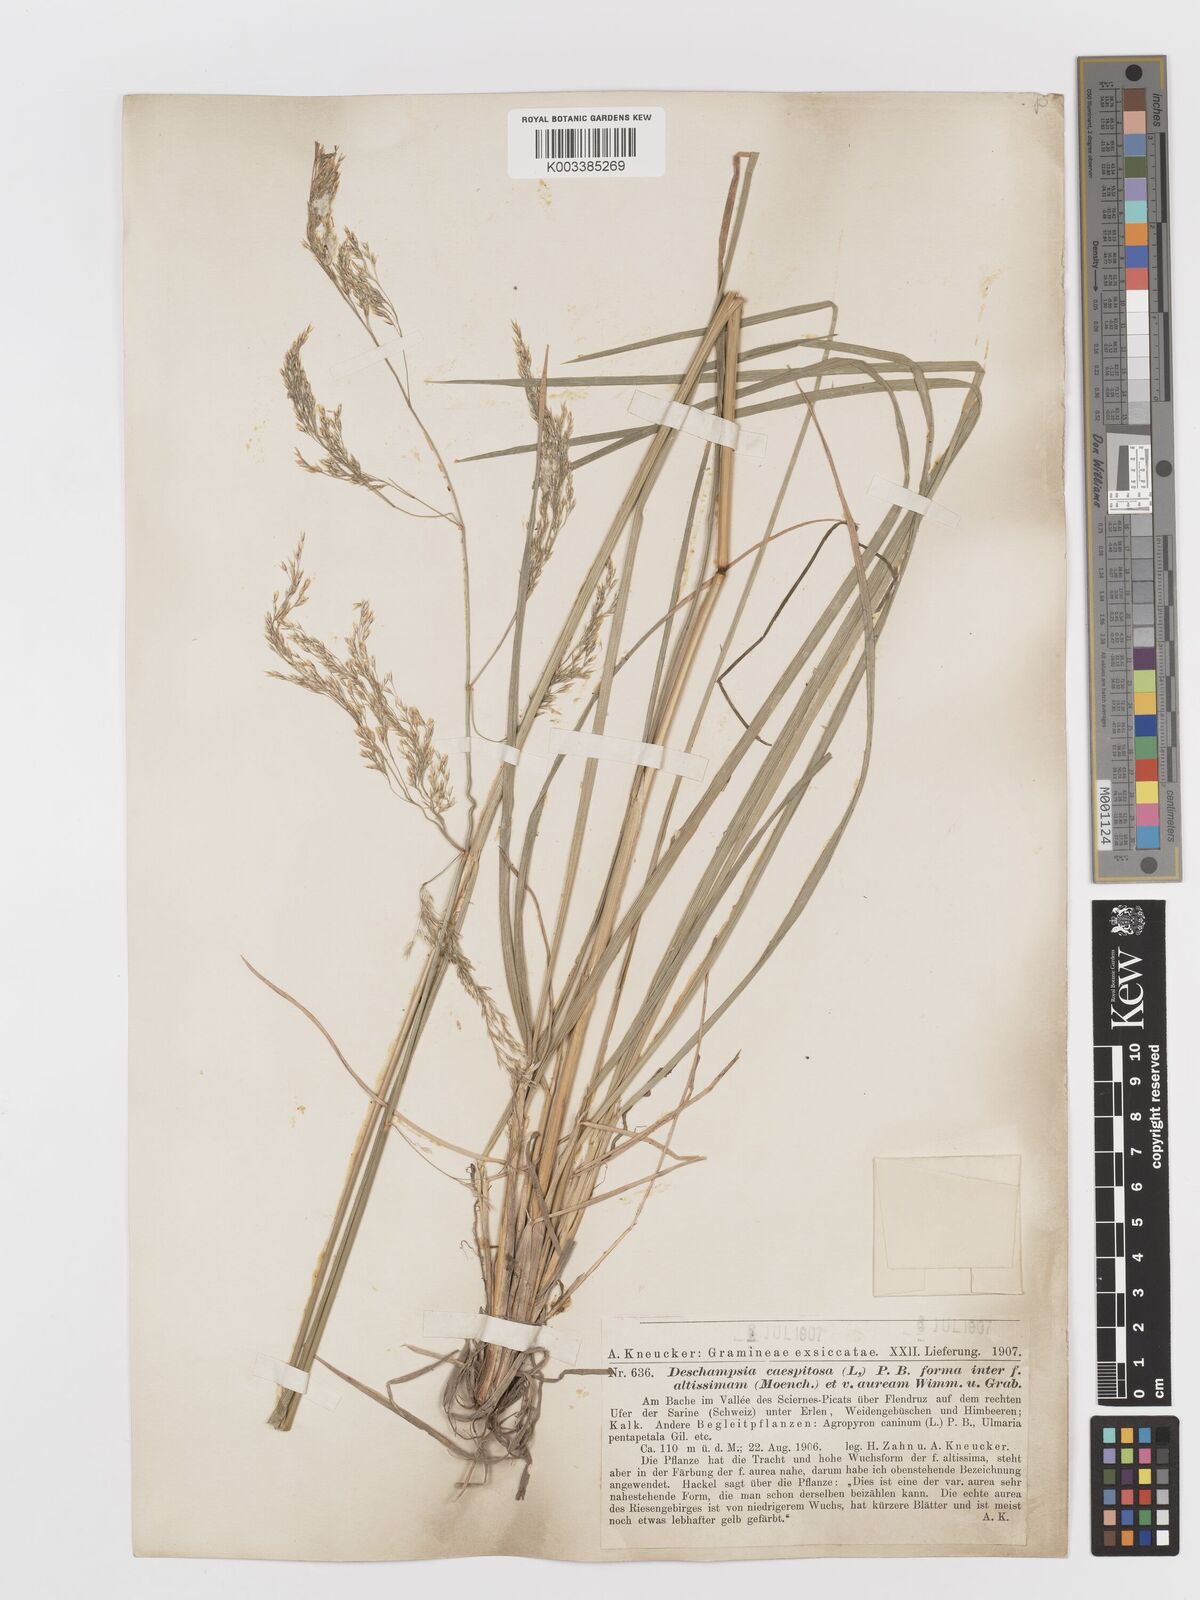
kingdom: Plantae
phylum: Tracheophyta
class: Liliopsida
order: Poales
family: Poaceae
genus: Deschampsia
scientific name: Deschampsia cespitosa
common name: Tufted hair-grass
